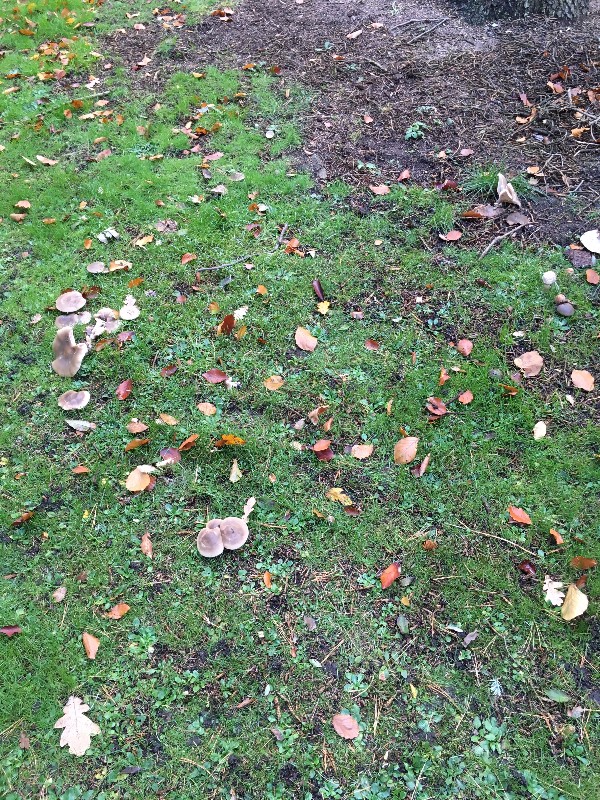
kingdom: Fungi
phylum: Basidiomycota
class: Agaricomycetes
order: Agaricales
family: Tricholomataceae
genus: Lepista
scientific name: Lepista personata
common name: bleg hekseringshat
